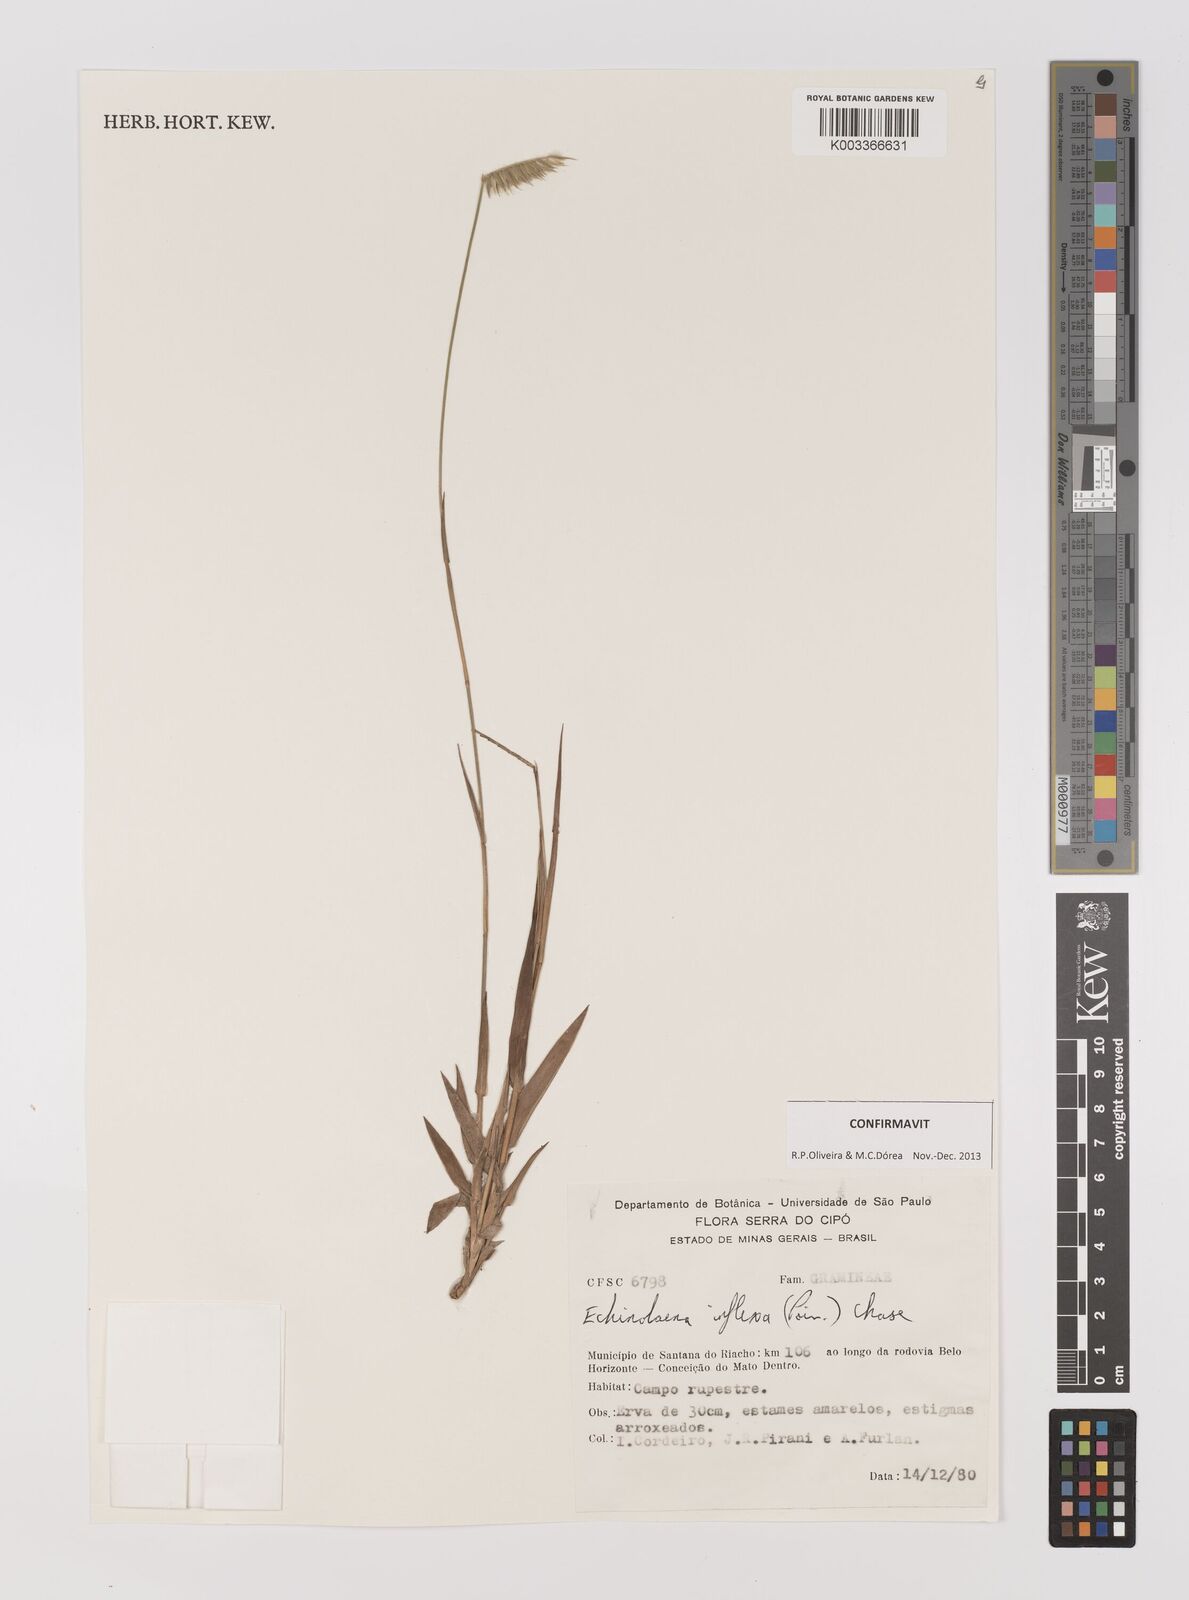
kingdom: Plantae
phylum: Tracheophyta
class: Liliopsida
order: Poales
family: Poaceae
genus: Echinolaena
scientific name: Echinolaena inflexa
